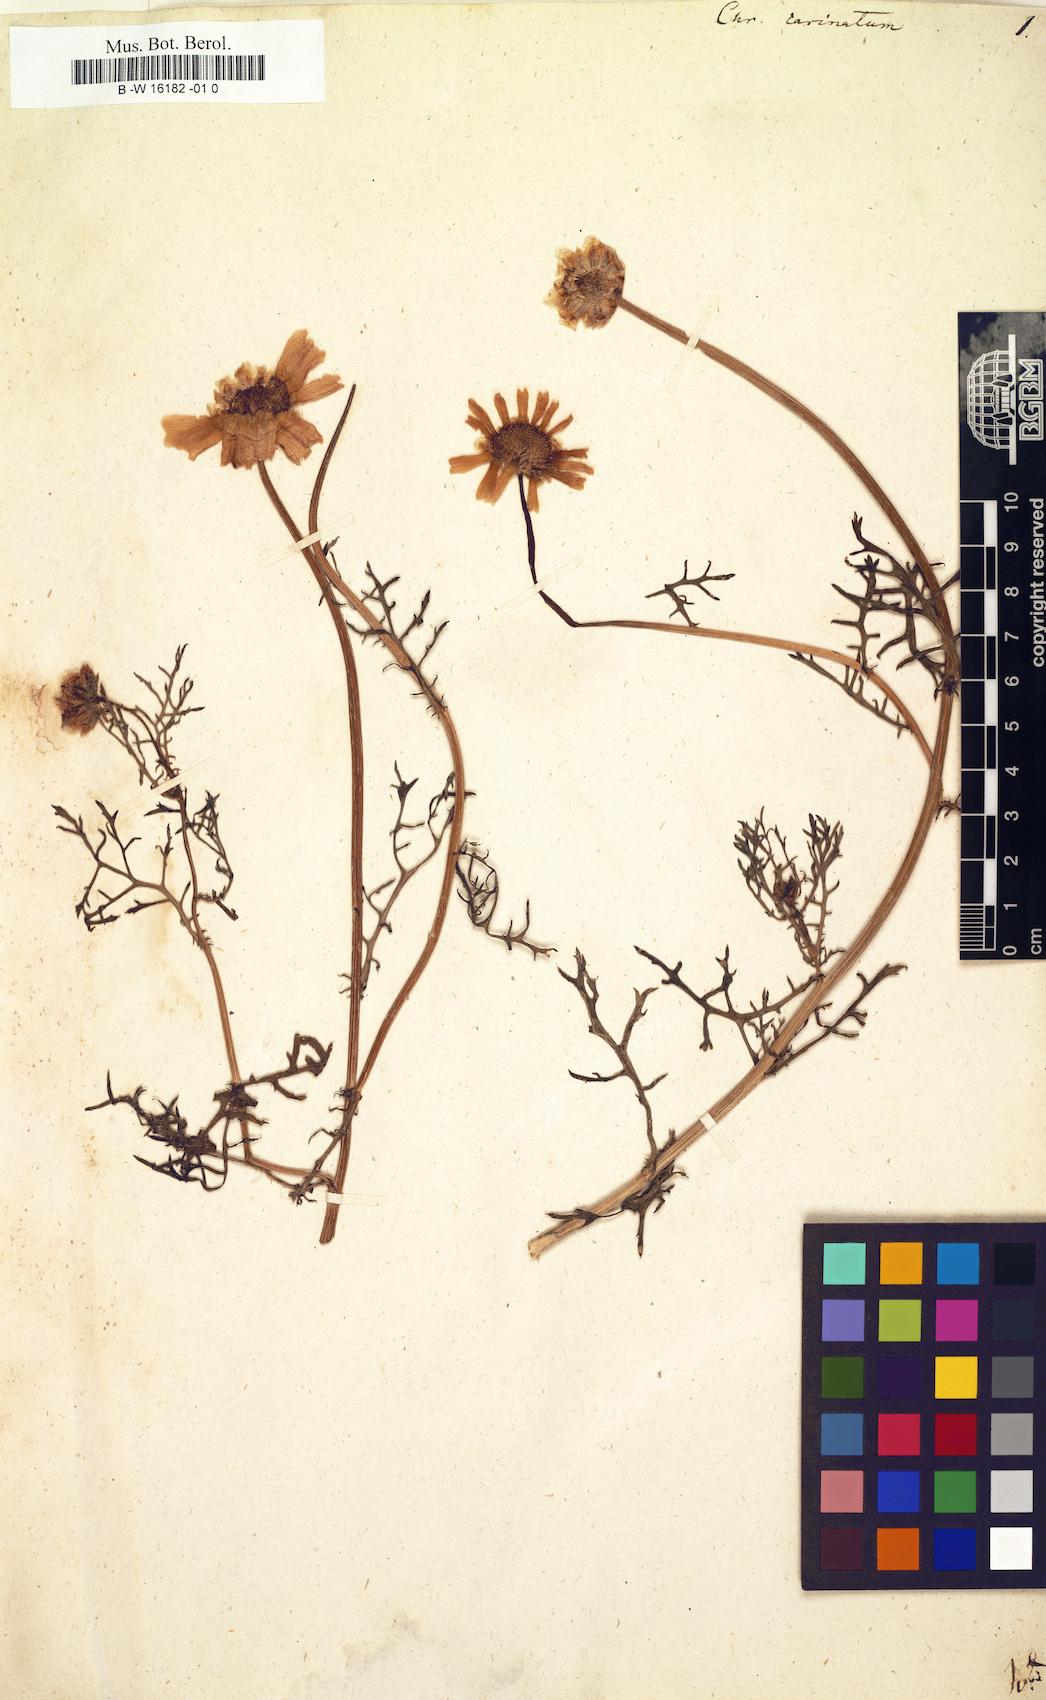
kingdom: Plantae
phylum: Tracheophyta
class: Magnoliopsida
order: Asterales
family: Asteraceae
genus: Glebionis
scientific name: Glebionis carinata
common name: Painted daisy
